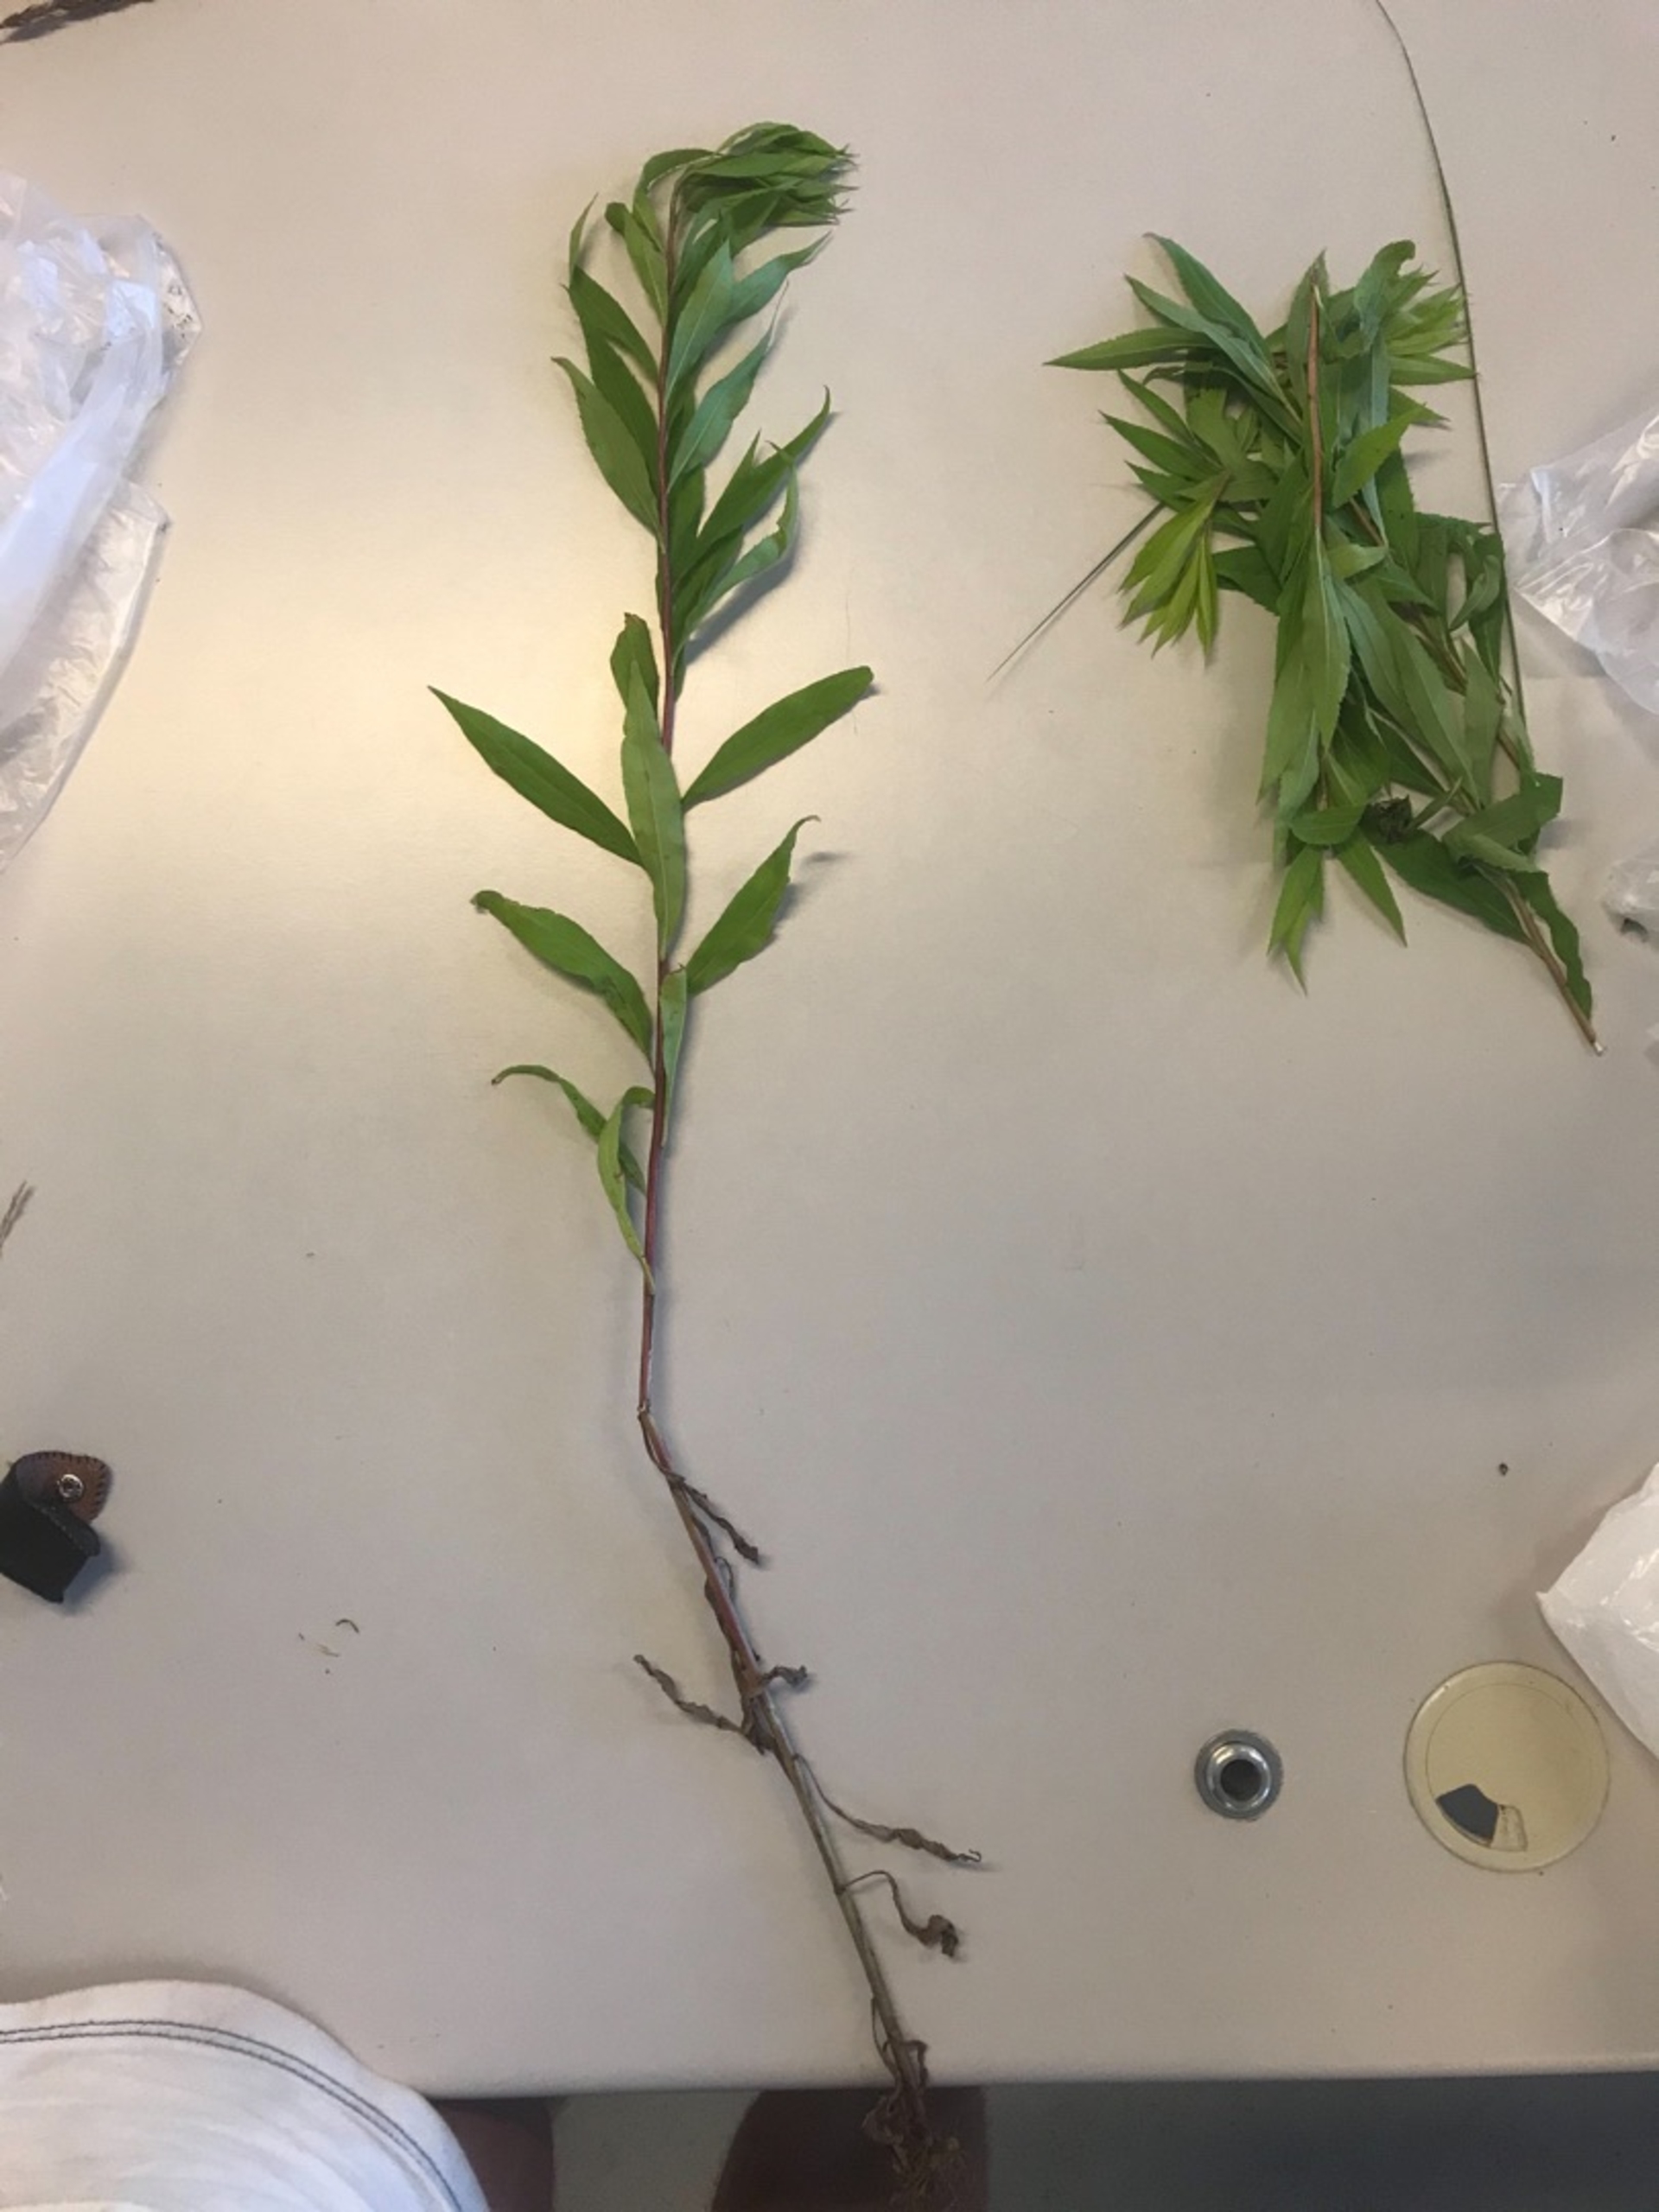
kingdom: Plantae
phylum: Tracheophyta
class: Magnoliopsida
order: Asterales
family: Asteraceae
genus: Solidago
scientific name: Solidago gigantea
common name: Sildig gyldenris
